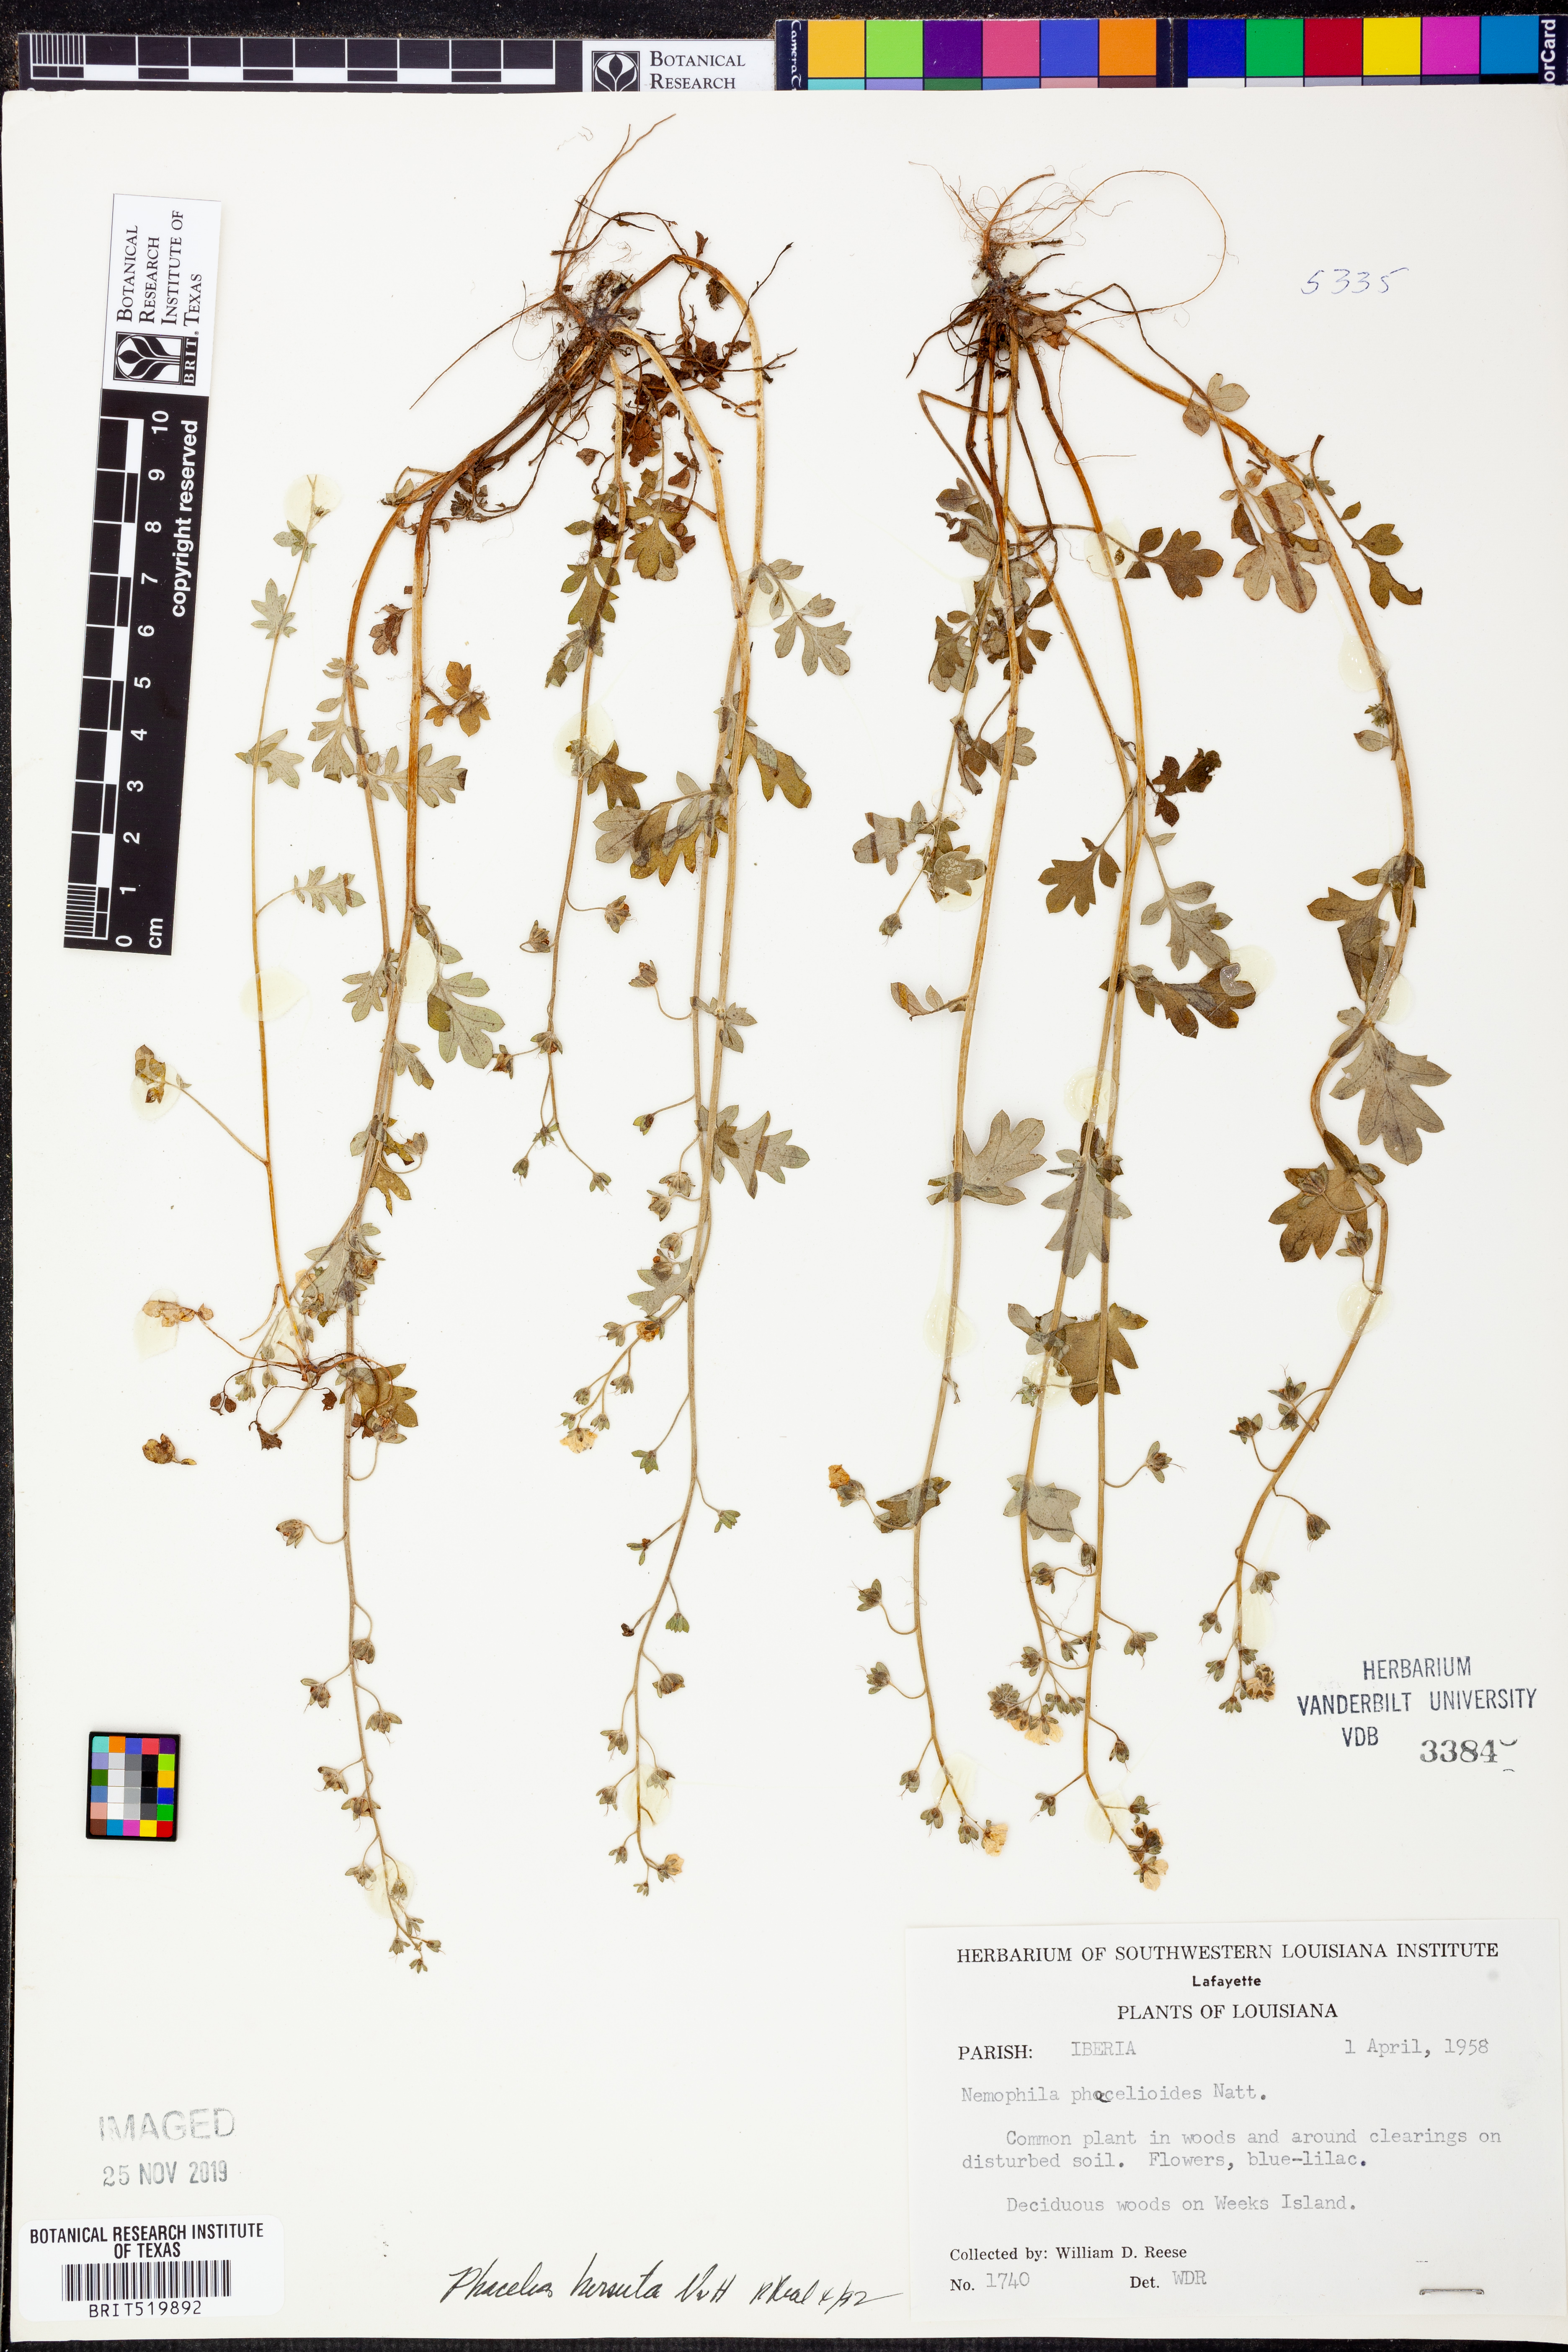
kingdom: Plantae
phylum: Tracheophyta
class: Magnoliopsida
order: Boraginales
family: Hydrophyllaceae
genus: Phacelia
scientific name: Phacelia hirsuta
